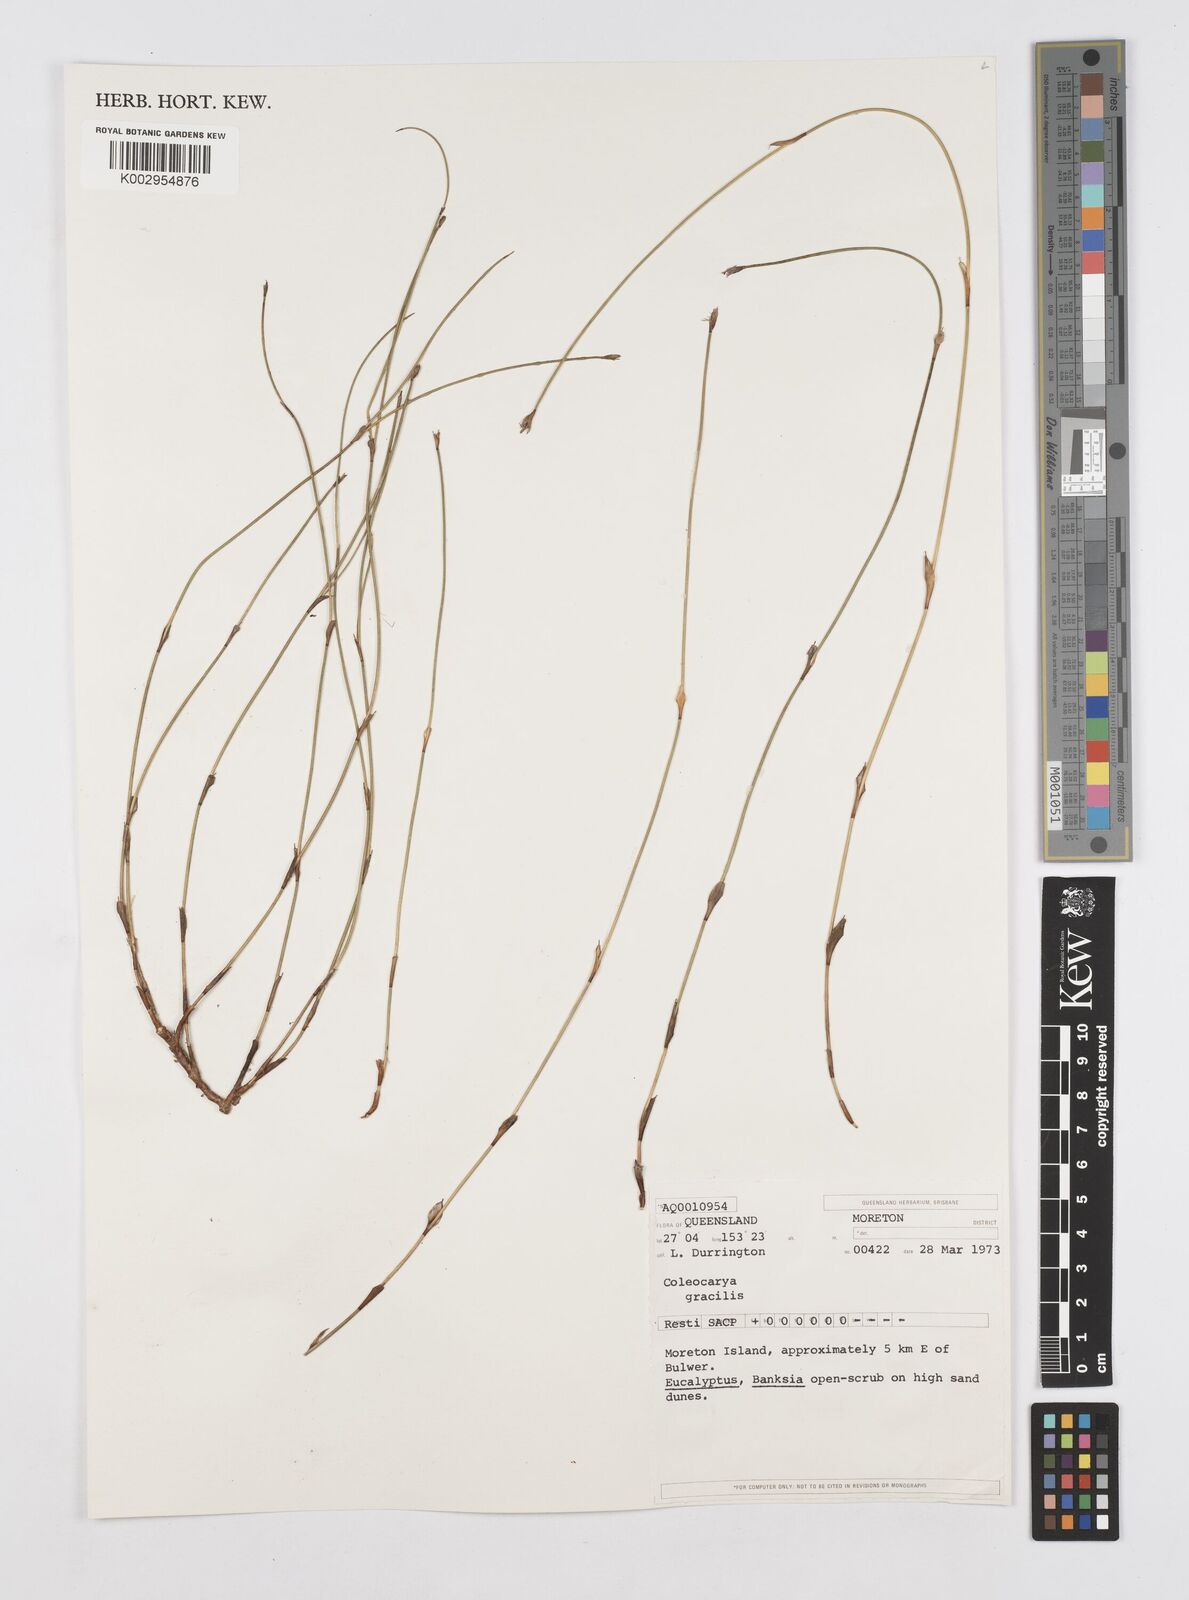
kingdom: Plantae
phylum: Tracheophyta
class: Liliopsida
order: Poales
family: Restionaceae
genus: Coleocarya
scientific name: Coleocarya gracilis
